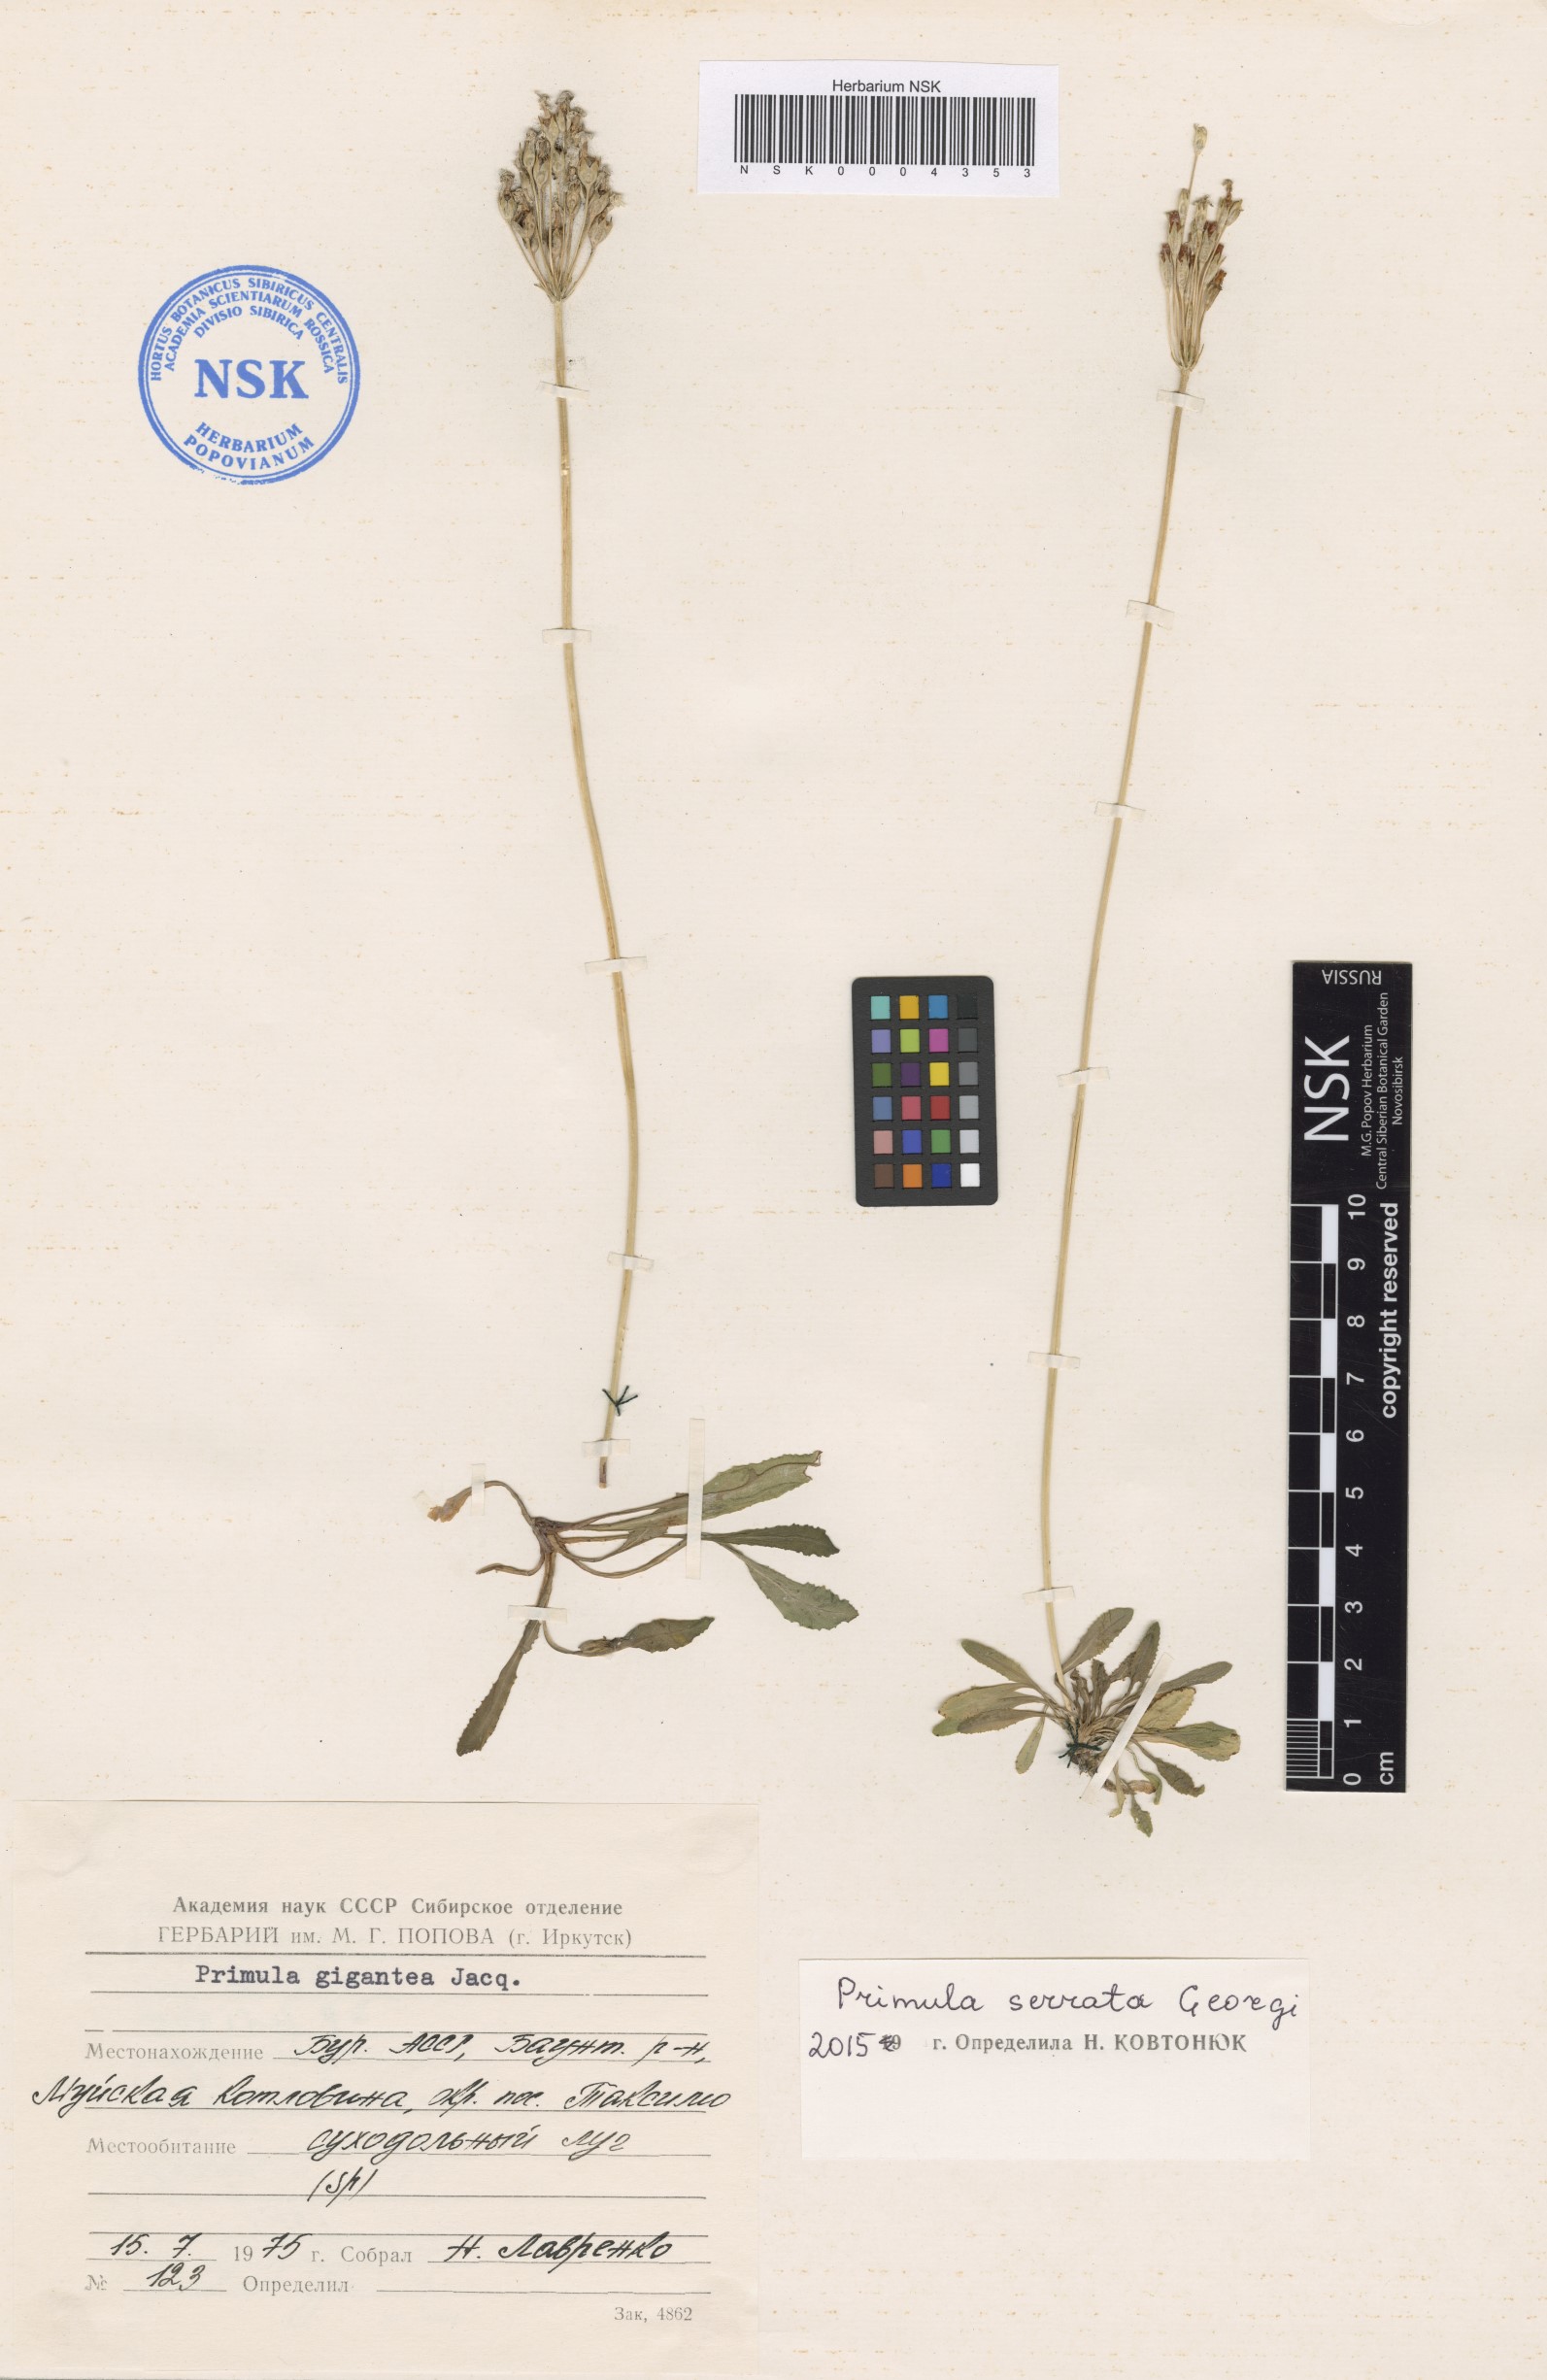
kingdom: Plantae
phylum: Tracheophyta
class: Magnoliopsida
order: Asterales
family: Asteraceae
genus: Taraxacum
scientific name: Taraxacum mujense
